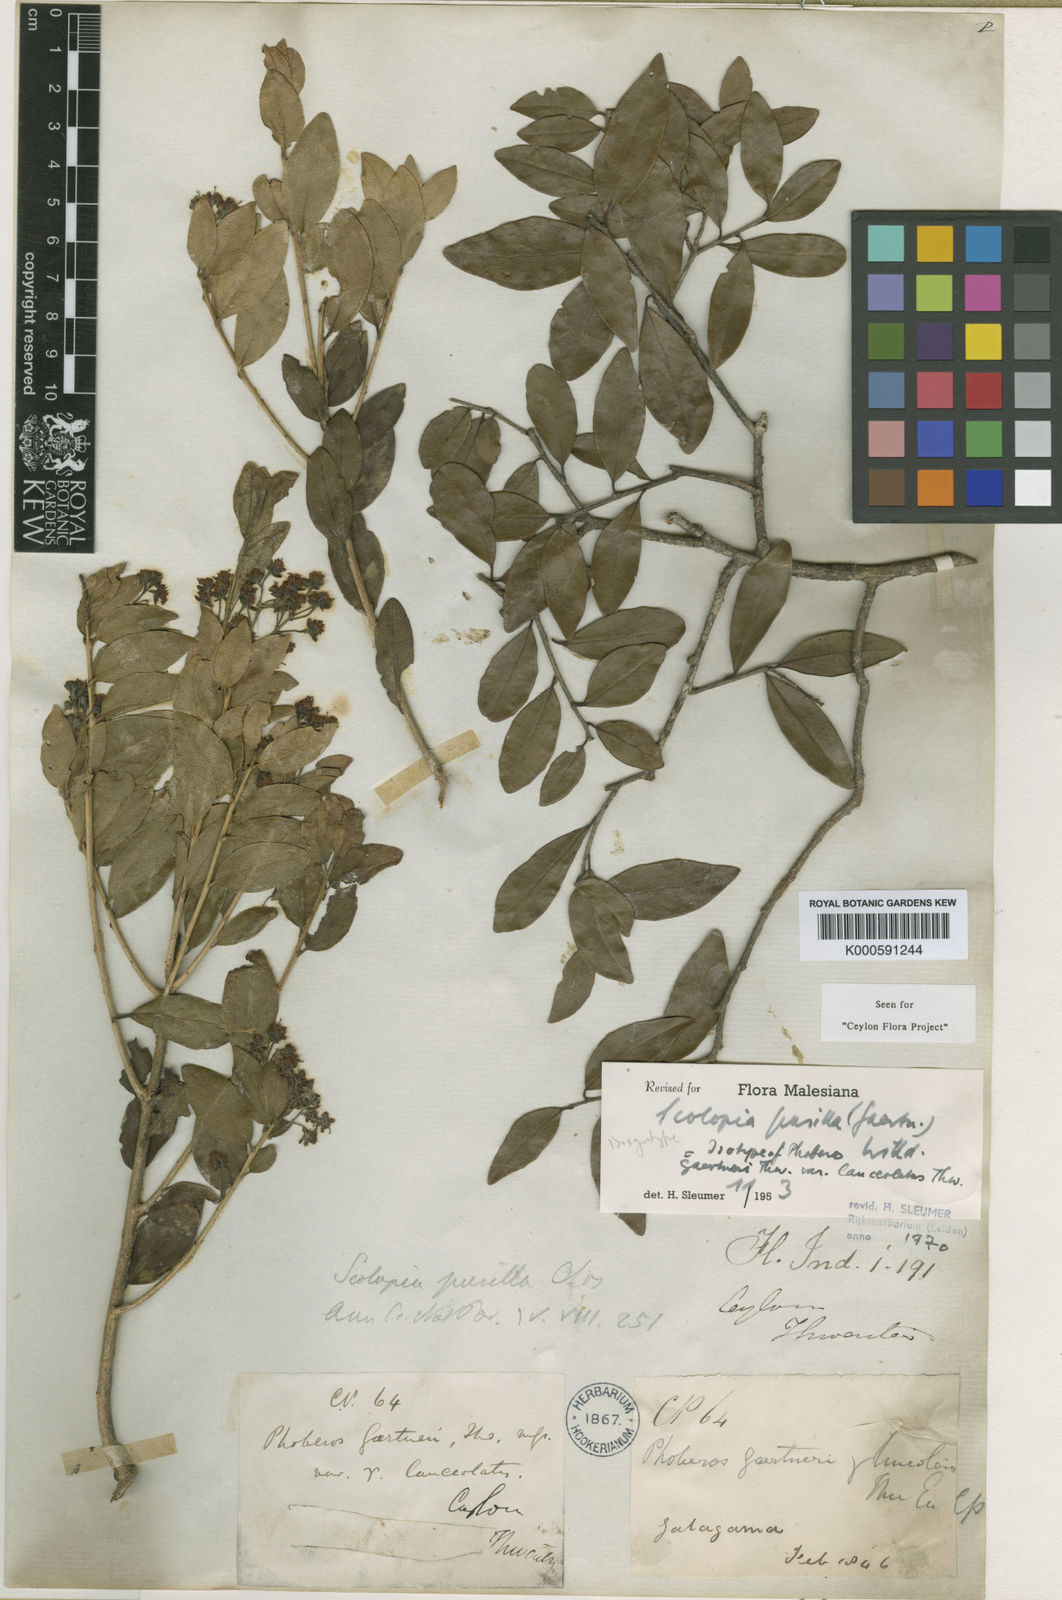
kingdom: Plantae
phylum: Tracheophyta
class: Magnoliopsida
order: Malpighiales
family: Salicaceae
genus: Scolopia
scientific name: Scolopia pusilla
